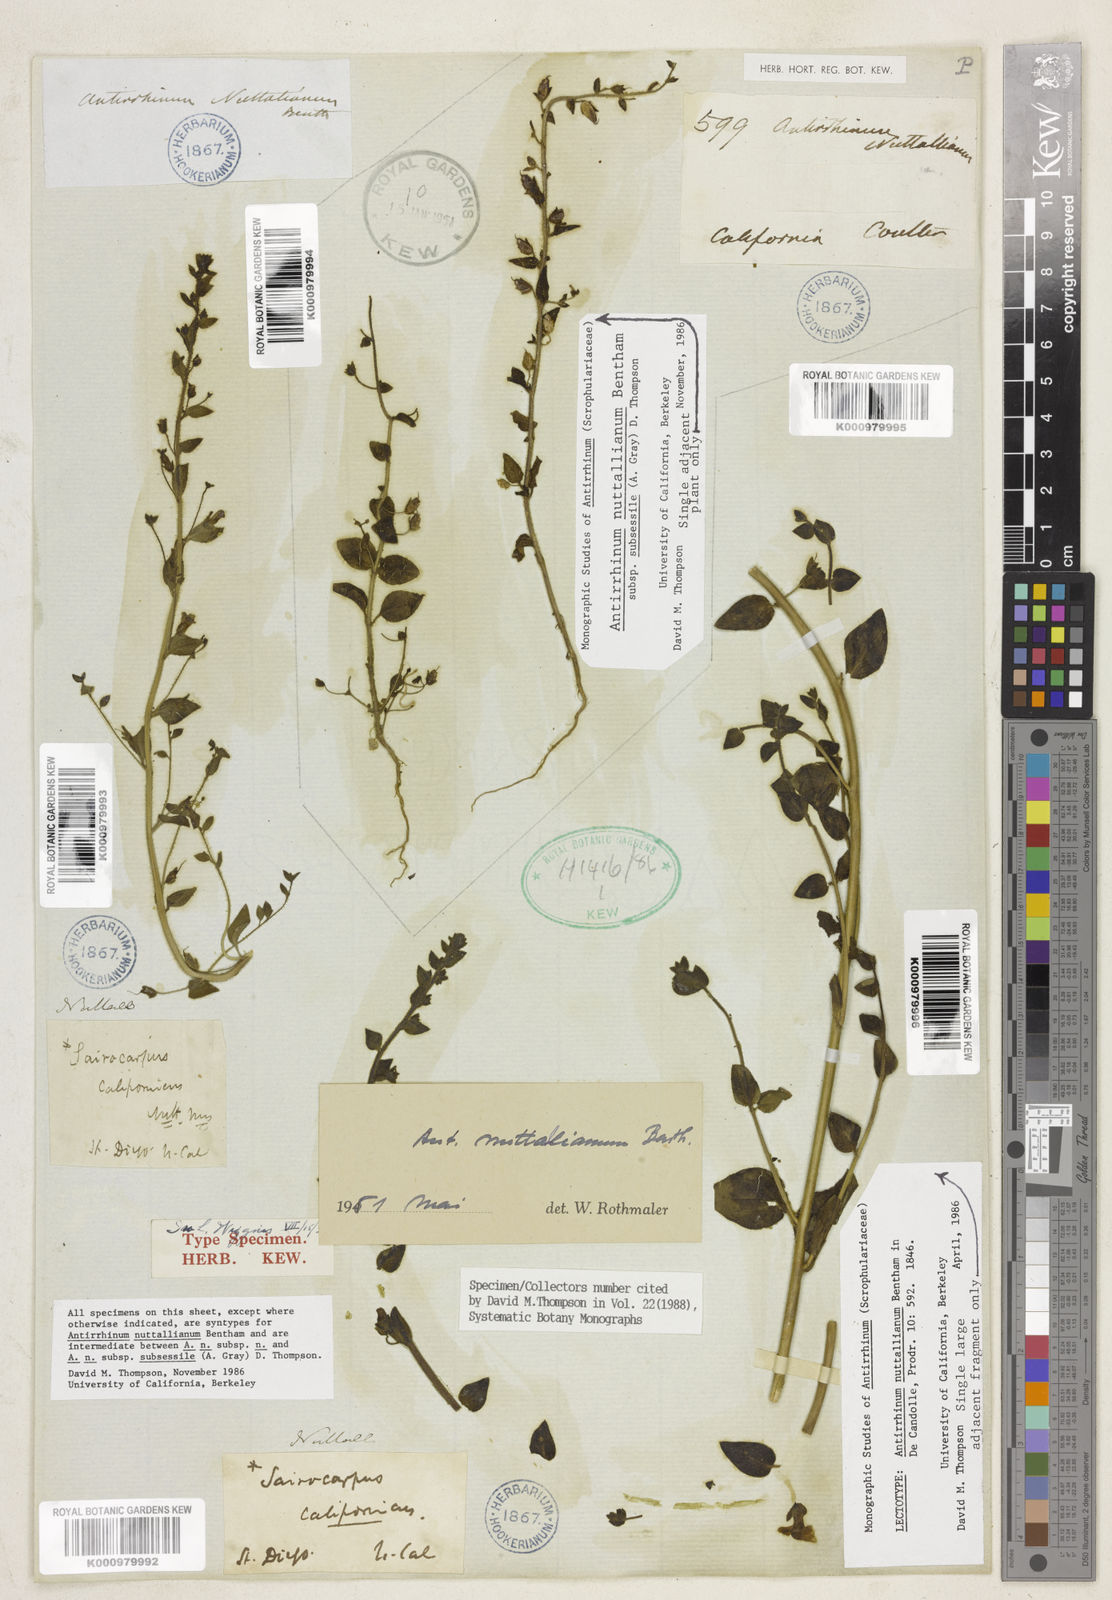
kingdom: Plantae
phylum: Tracheophyta
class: Magnoliopsida
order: Lamiales
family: Plantaginaceae
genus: Antirrhinum
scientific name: Antirrhinum
